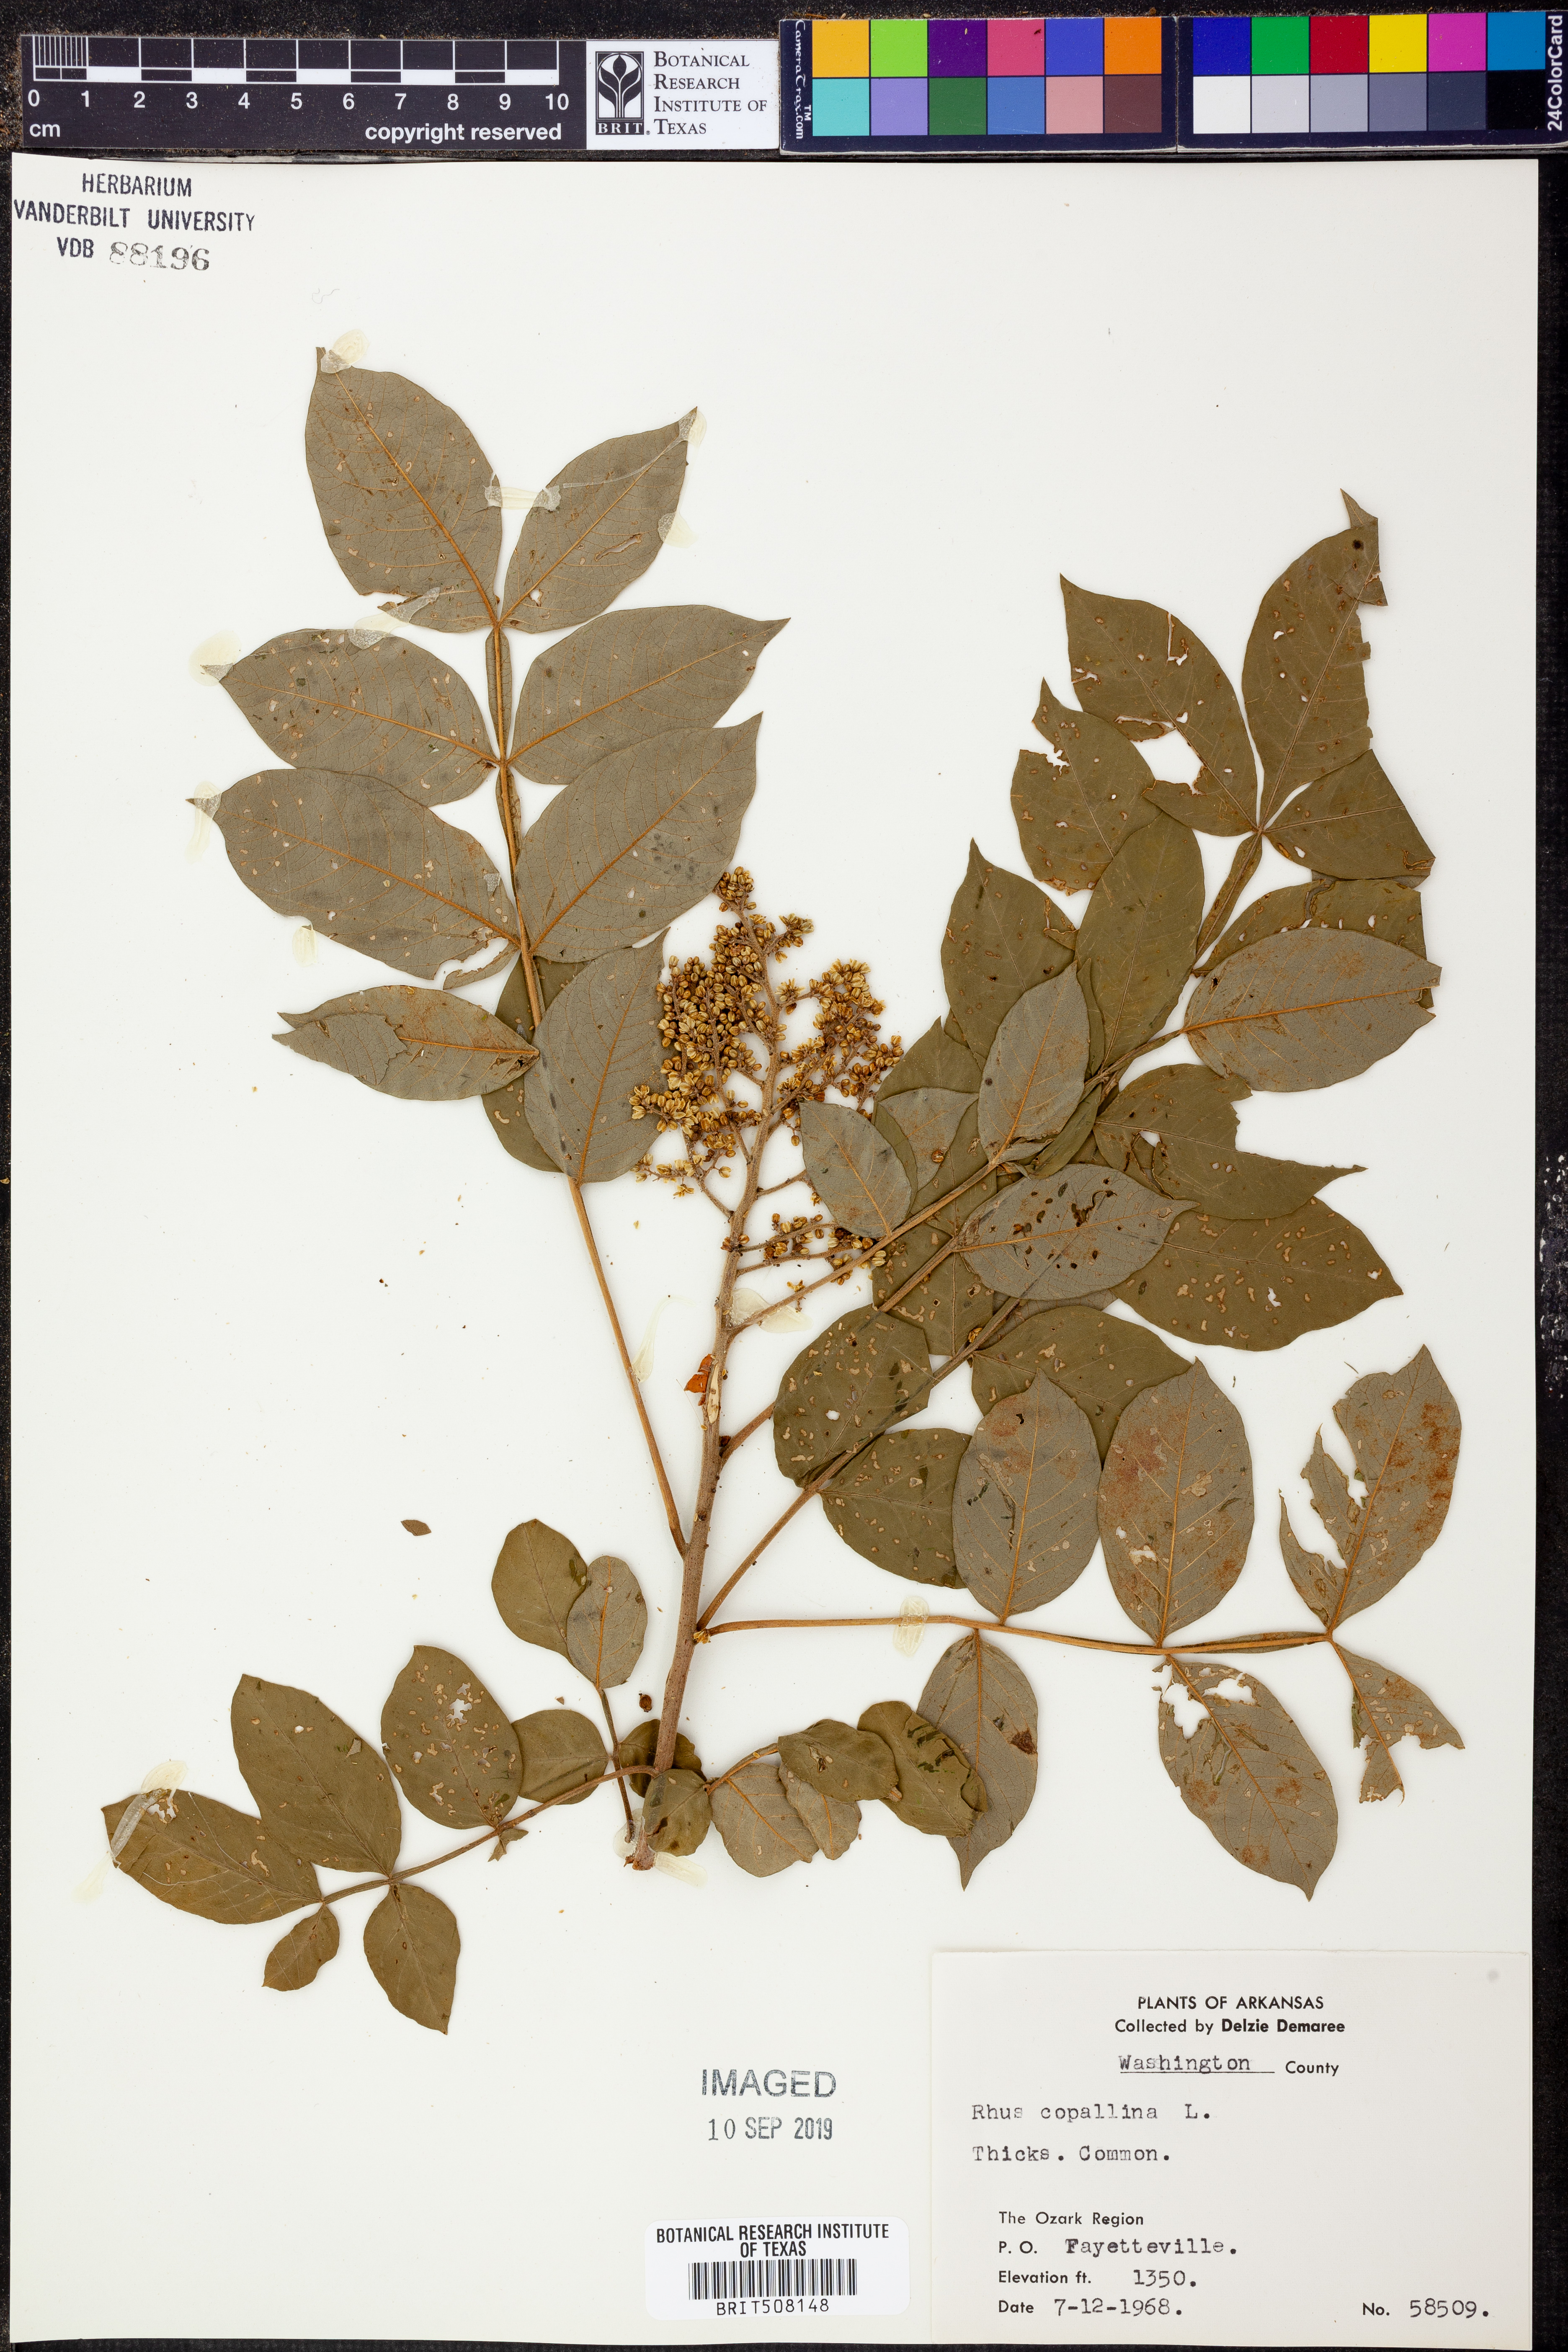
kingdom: Plantae
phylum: Tracheophyta
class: Magnoliopsida
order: Sapindales
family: Anacardiaceae
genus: Rhus
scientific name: Rhus copallina
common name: Shining sumac
